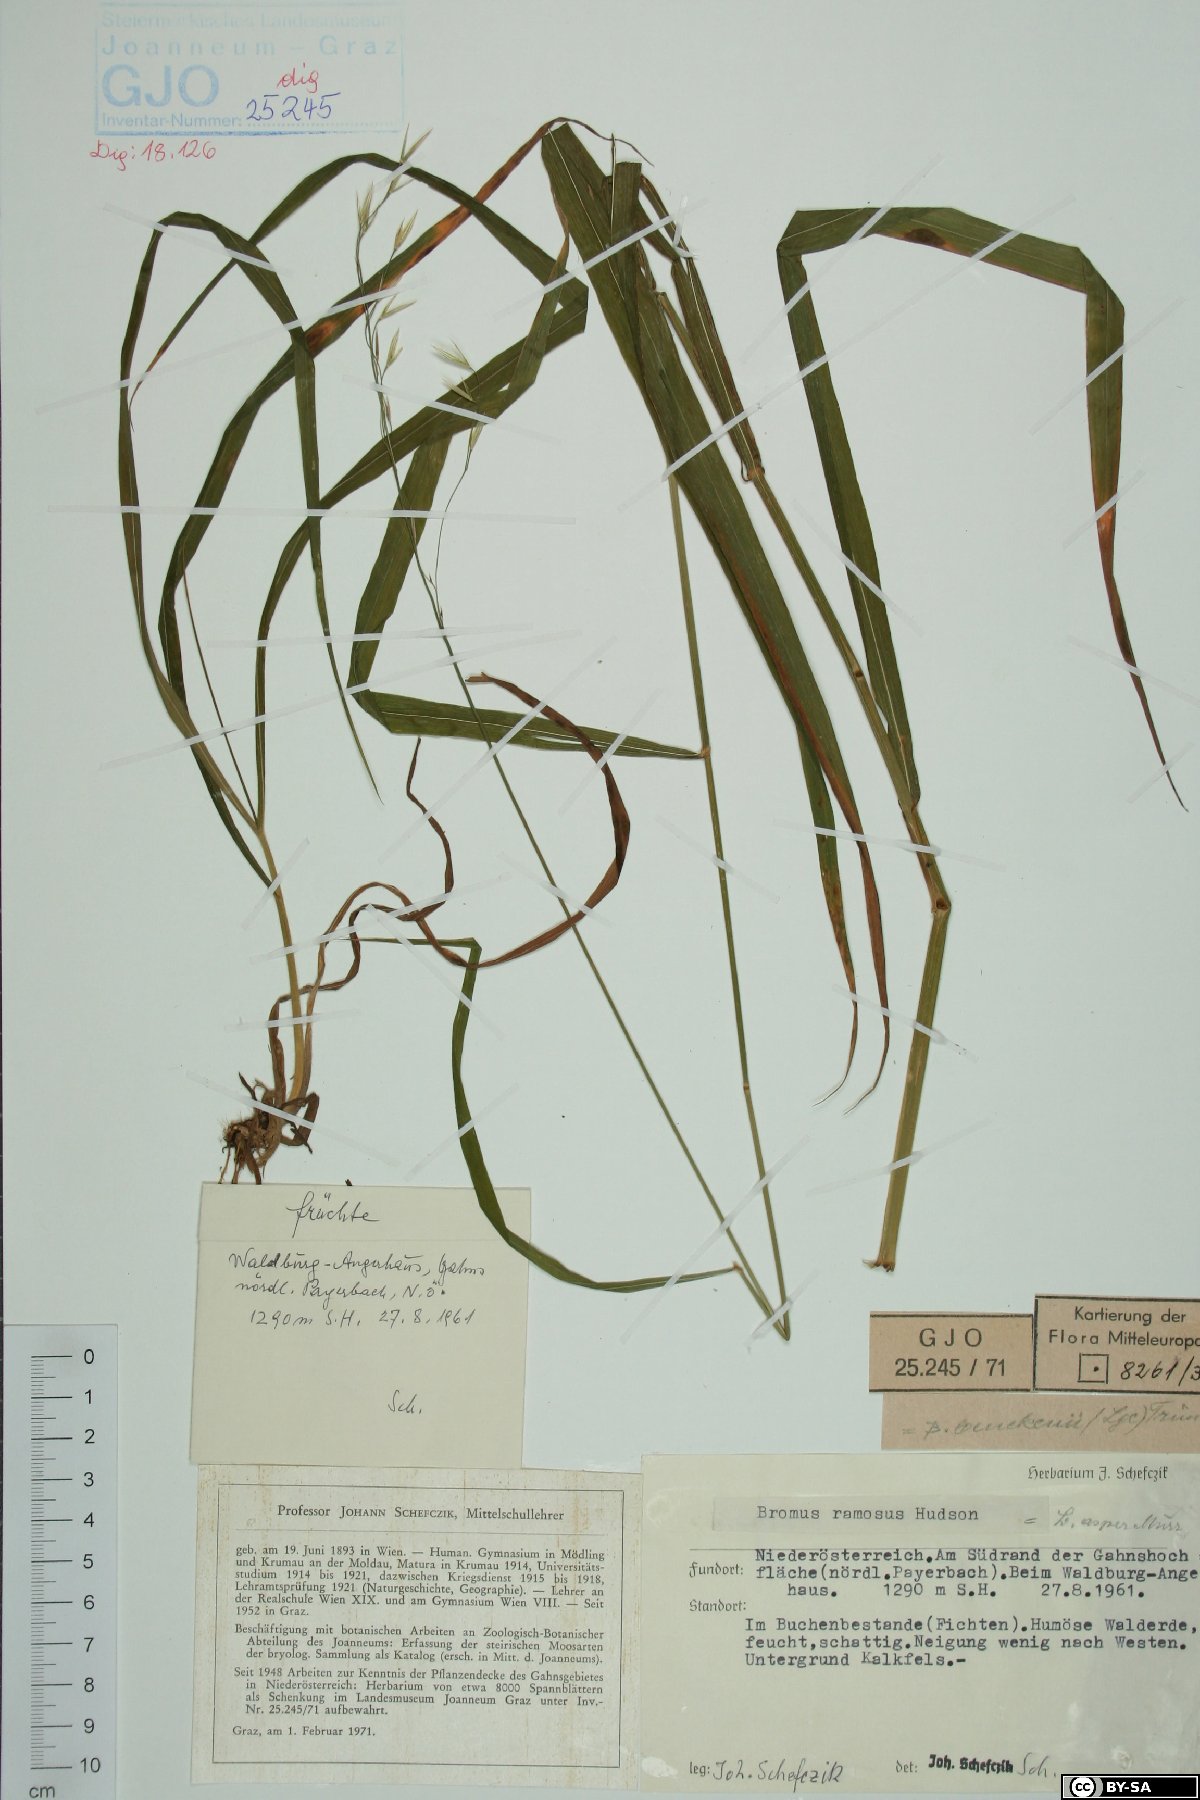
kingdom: Plantae
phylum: Tracheophyta
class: Liliopsida
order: Poales
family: Poaceae
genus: Bromus
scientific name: Bromus ramosus
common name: Hairy brome
